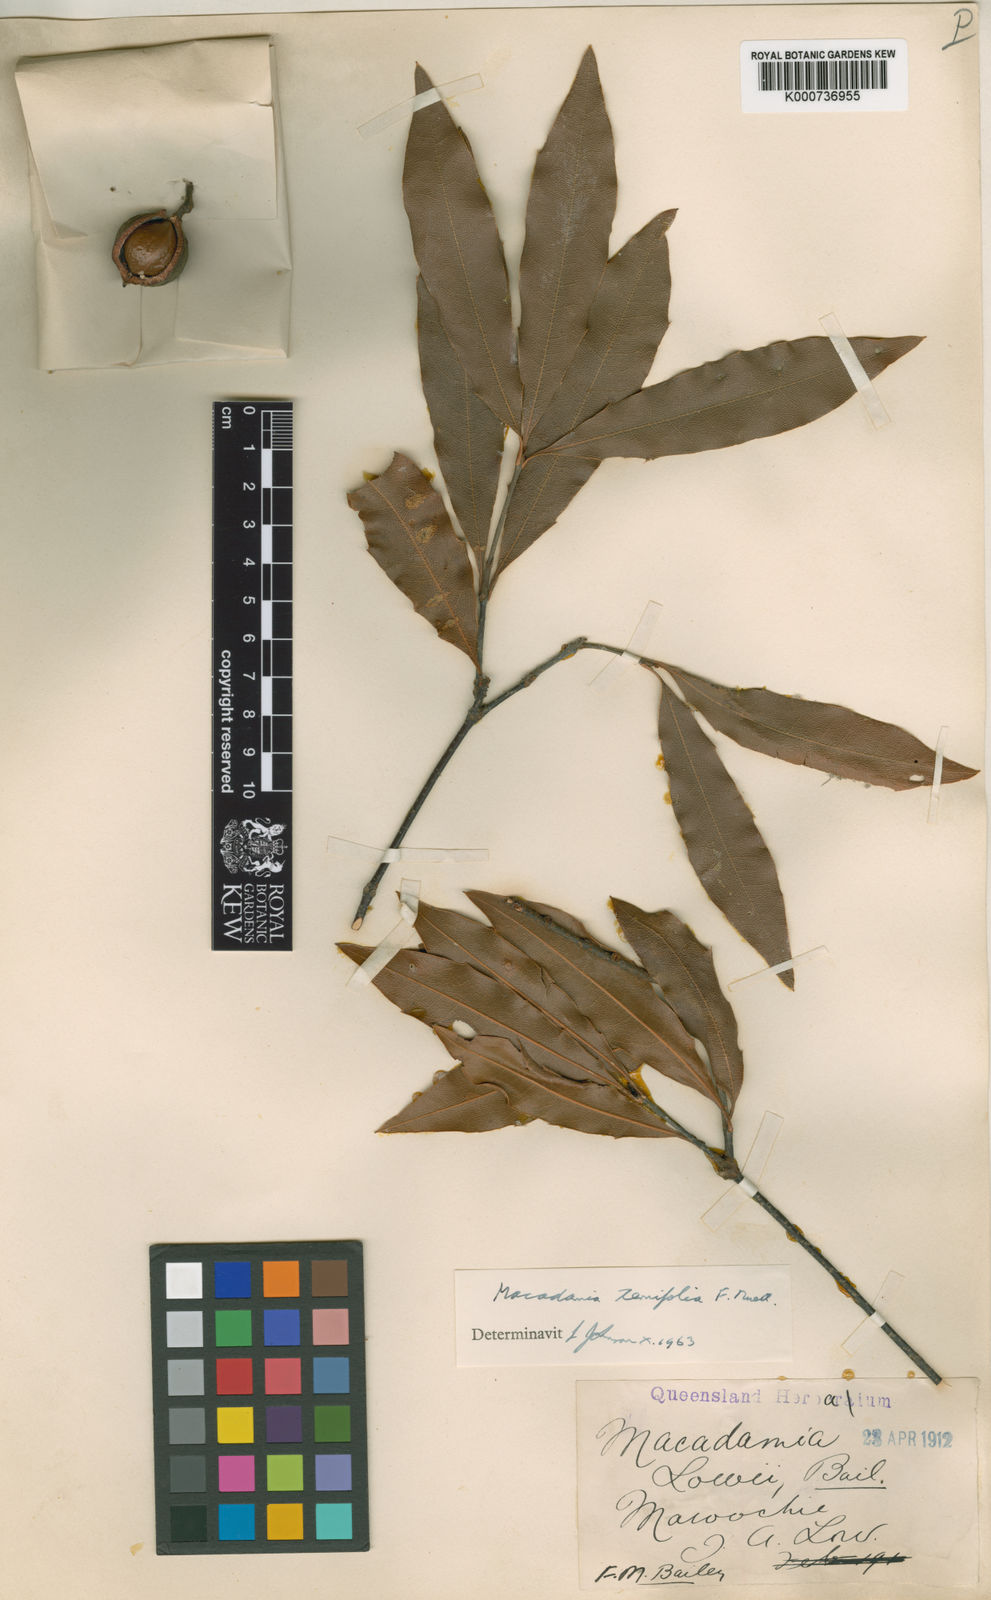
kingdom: Plantae
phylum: Tracheophyta
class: Magnoliopsida
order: Proteales
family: Proteaceae
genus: Macadamia
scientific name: Macadamia ternifolia
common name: Australian-nut
